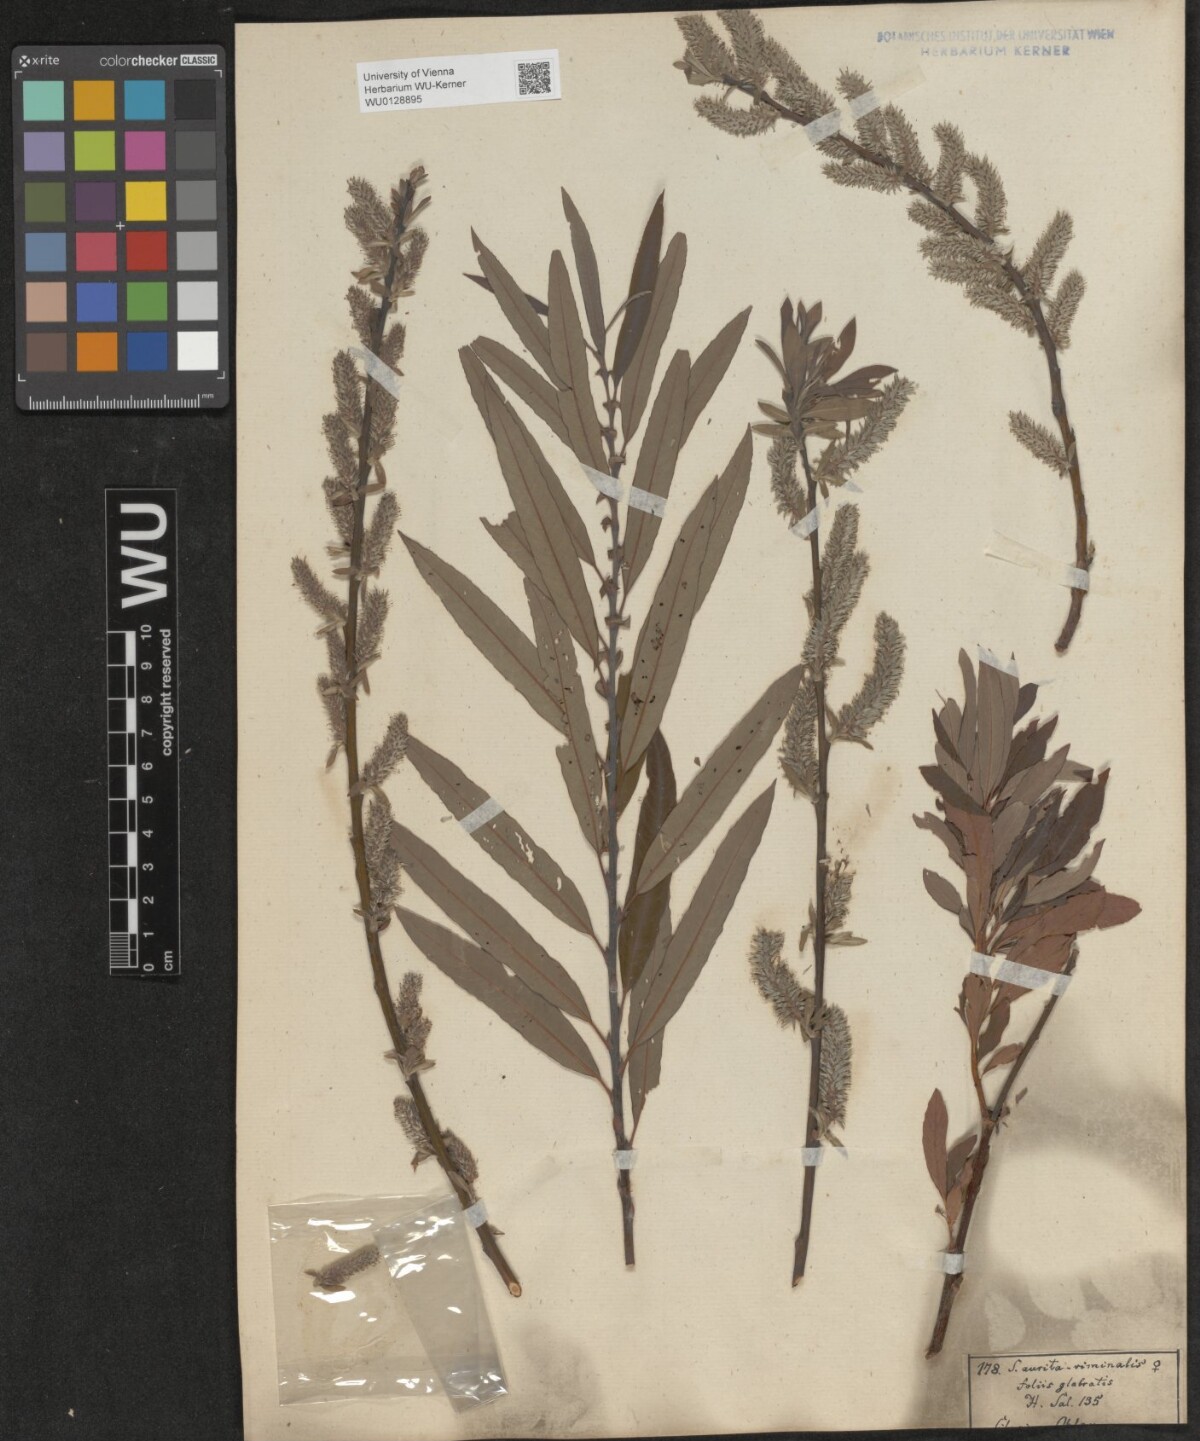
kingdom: Plantae
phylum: Tracheophyta
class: Magnoliopsida
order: Malpighiales
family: Salicaceae
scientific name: Salicaceae
